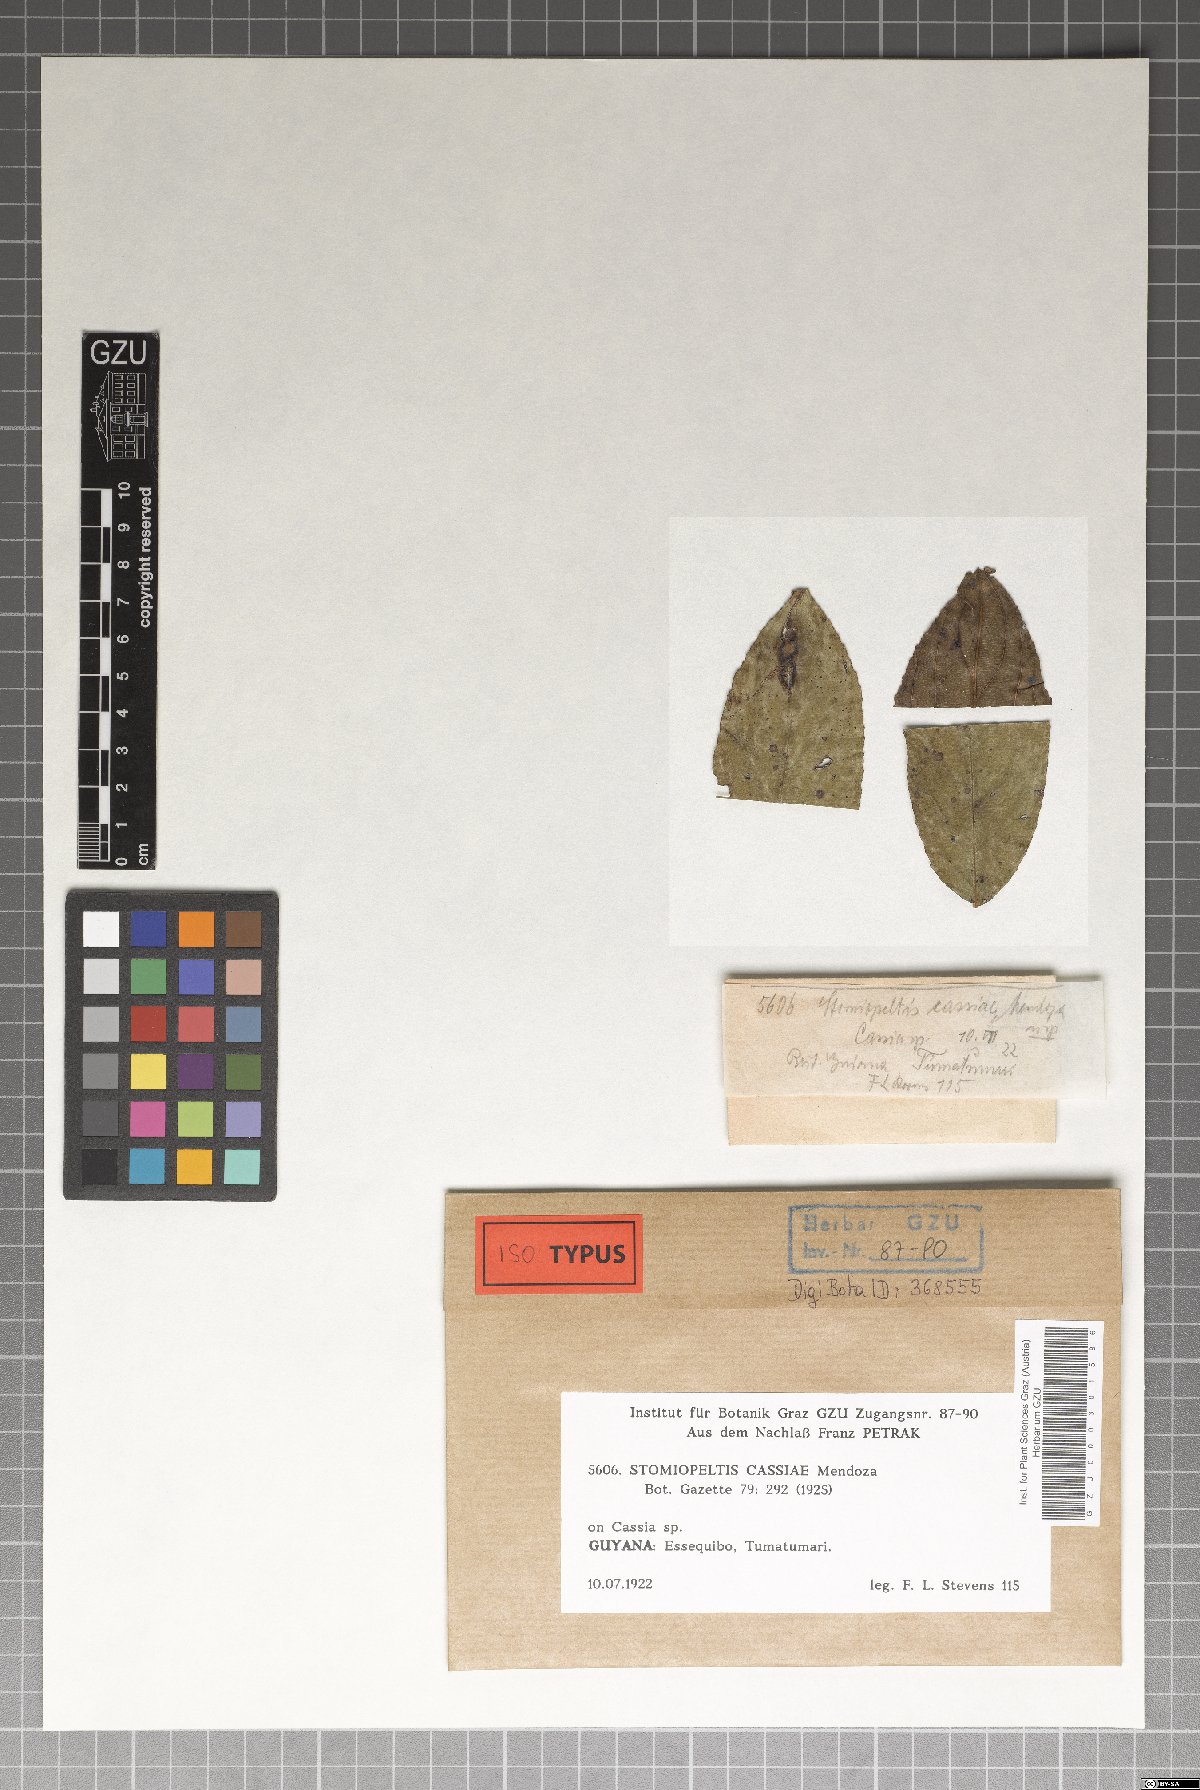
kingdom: Fungi
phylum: Ascomycota
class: Dothideomycetes
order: Microthyriales
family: Micropeltidaceae
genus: Stomiopeltis
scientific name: Stomiopeltis cassiae
